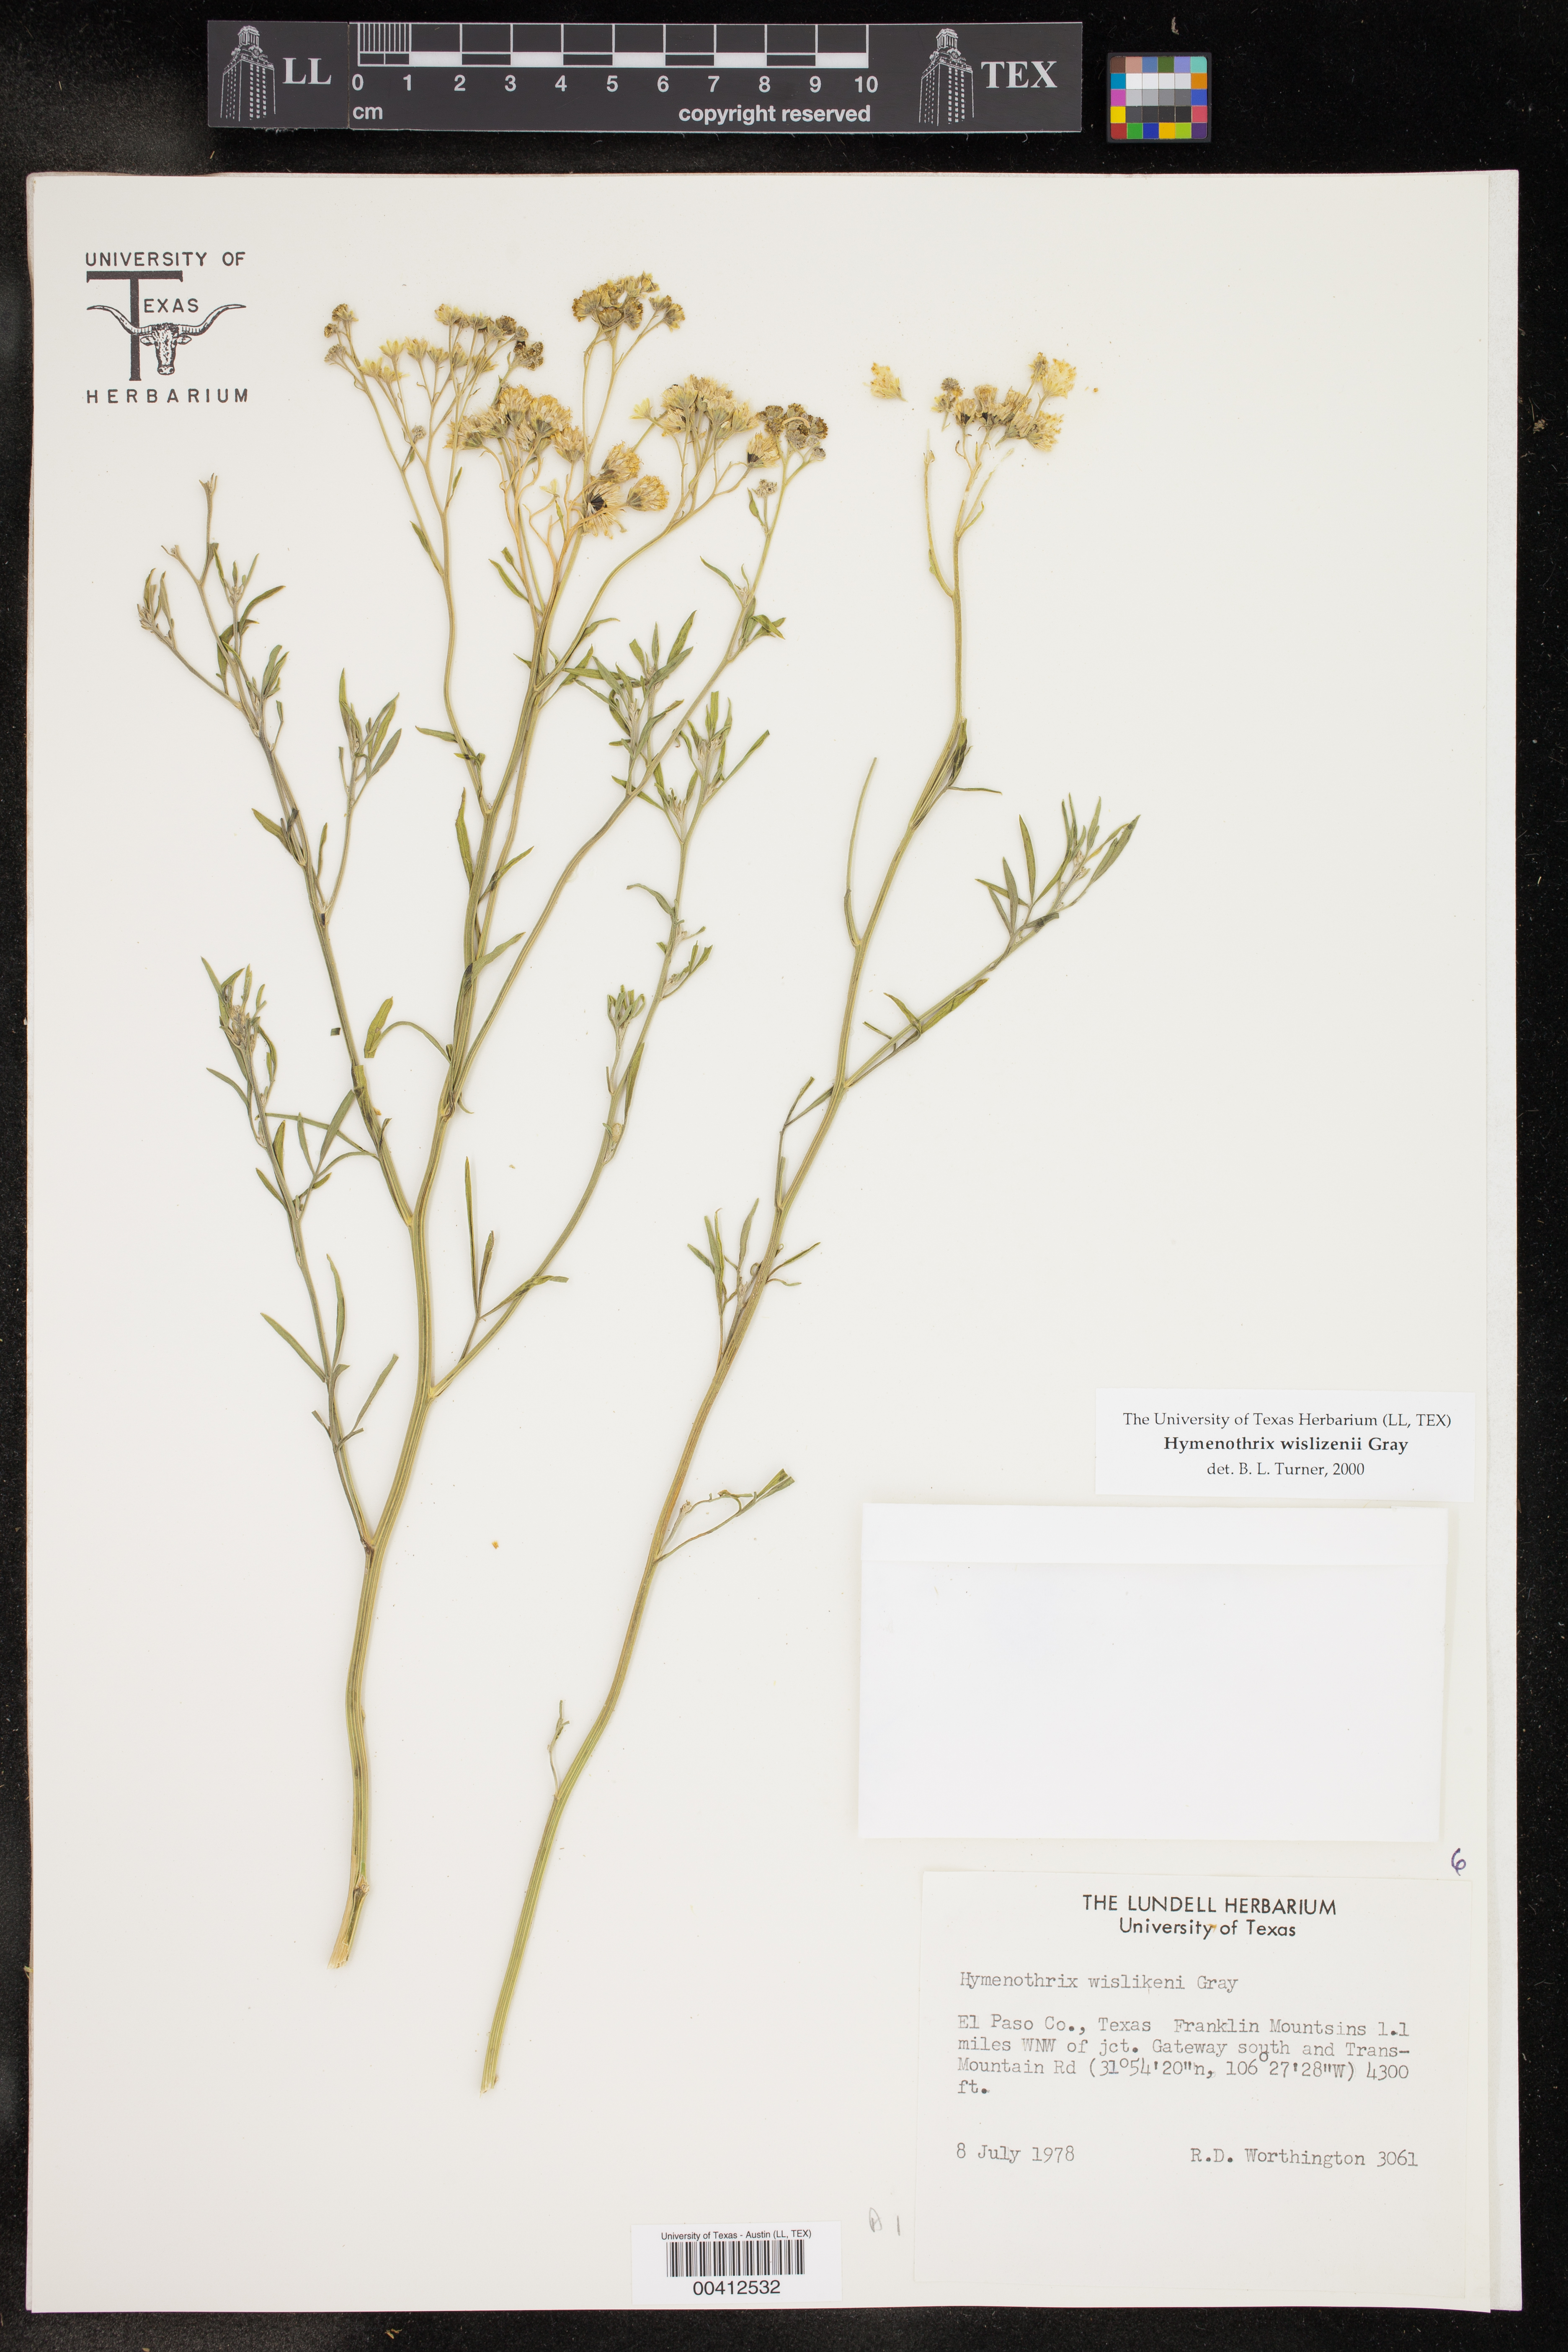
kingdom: Plantae
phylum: Tracheophyta
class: Magnoliopsida
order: Asterales
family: Asteraceae
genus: Hymenothrix
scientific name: Hymenothrix wislizeni
